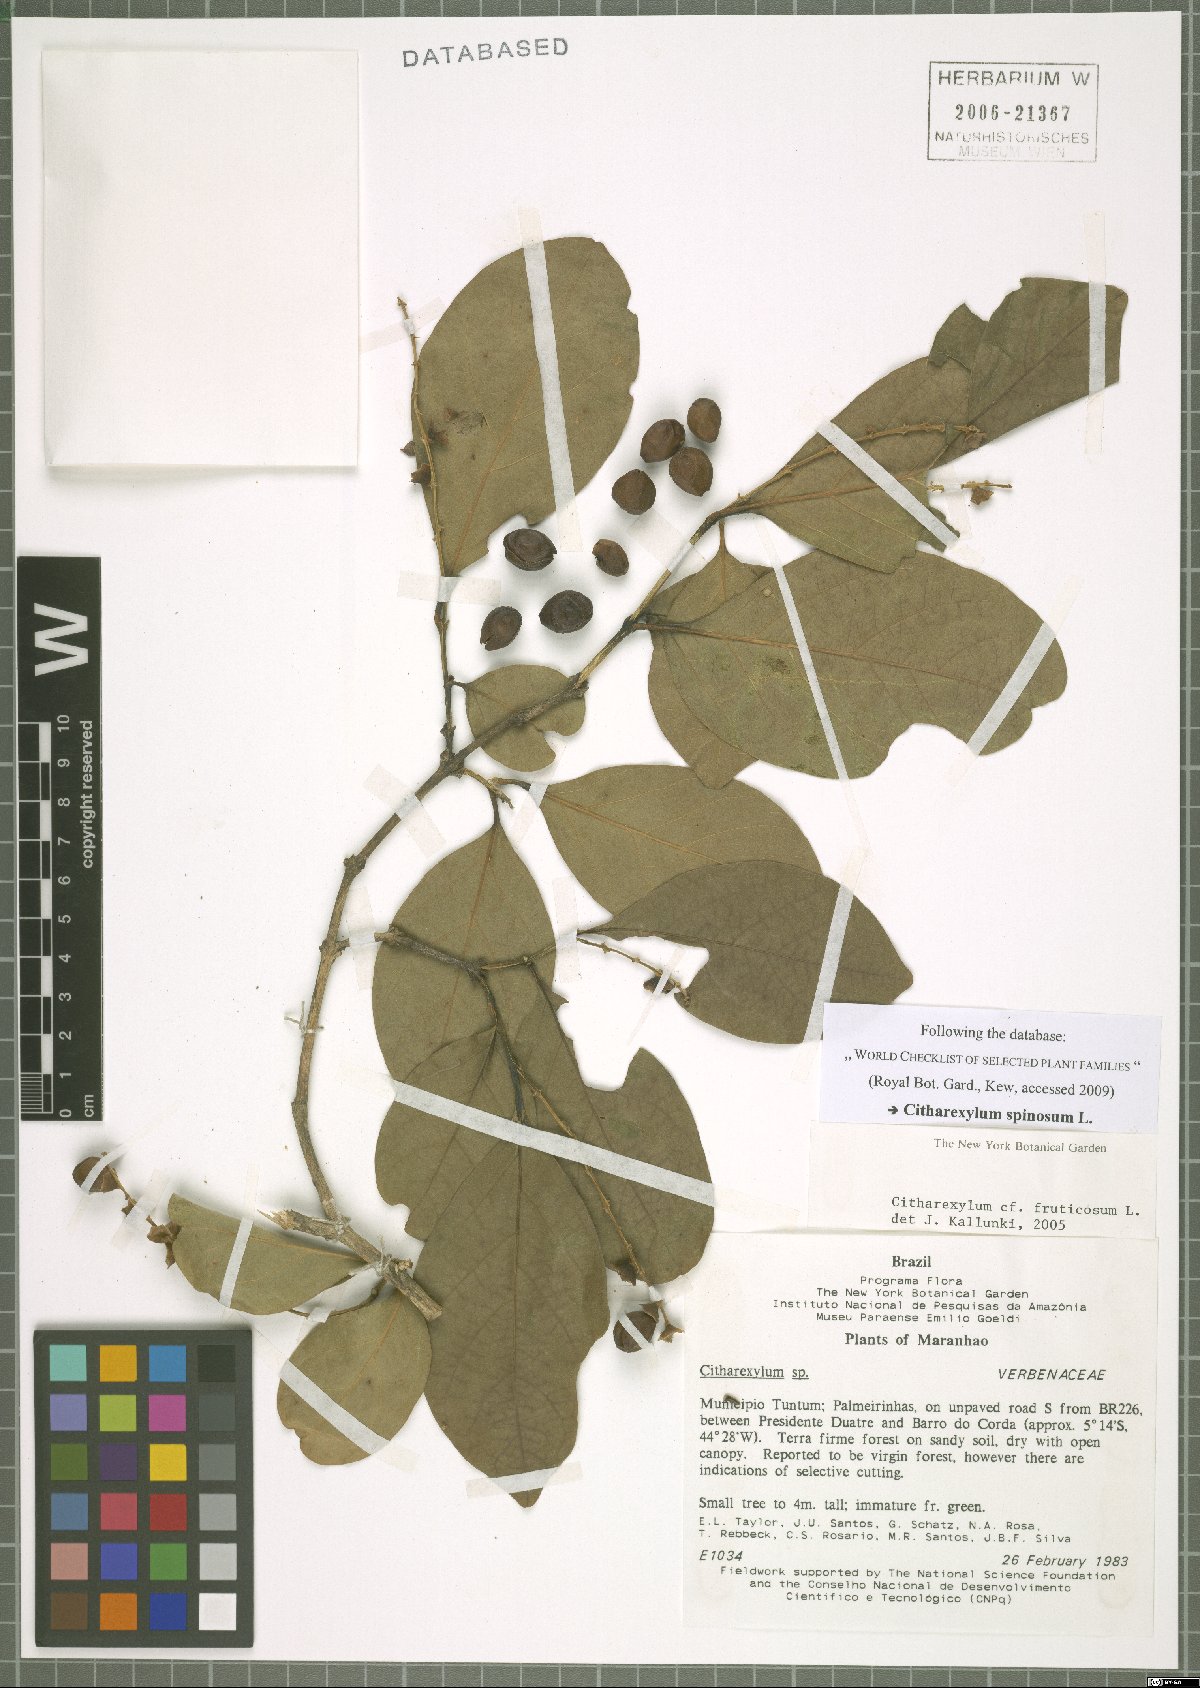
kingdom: Plantae
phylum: Tracheophyta
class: Magnoliopsida
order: Lamiales
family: Verbenaceae
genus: Citharexylum
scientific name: Citharexylum spinosum
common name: Fiddlewood
